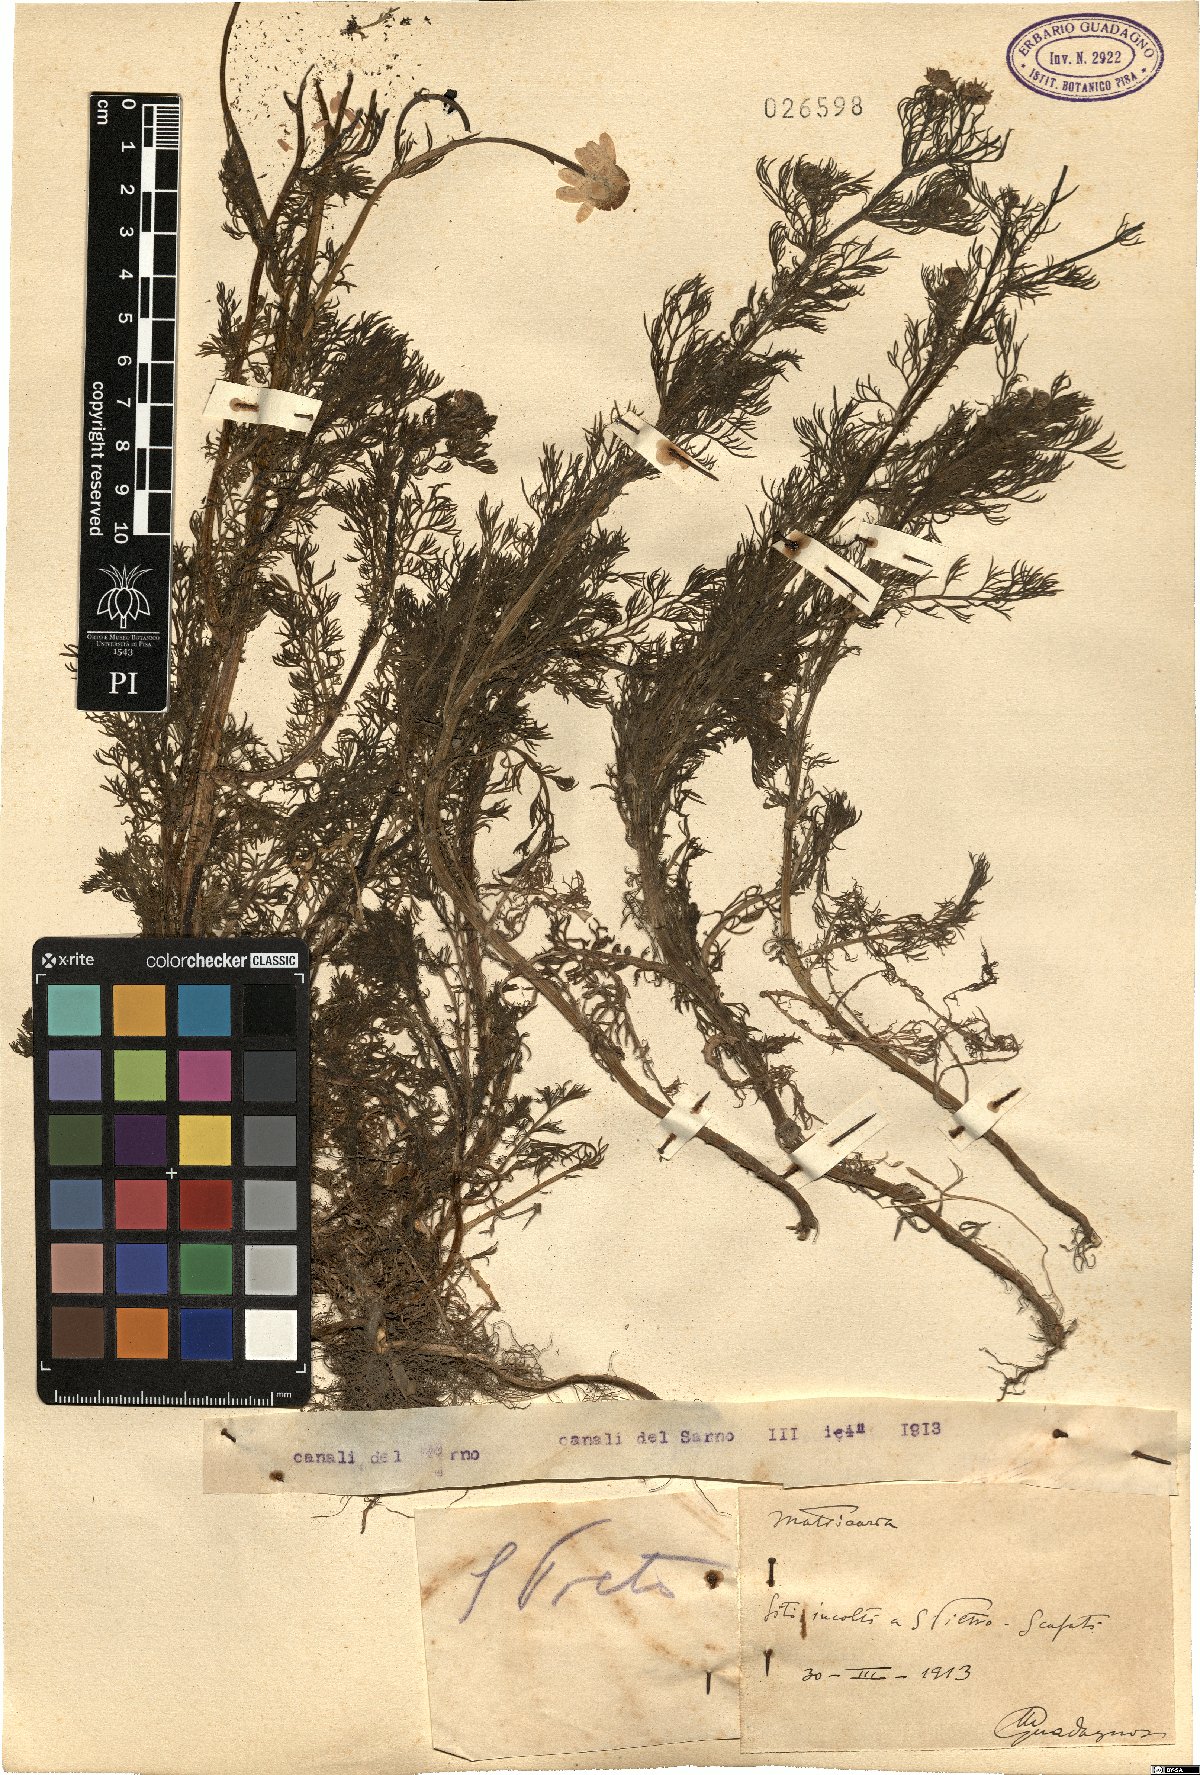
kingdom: Plantae
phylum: Tracheophyta
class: Magnoliopsida
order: Asterales
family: Asteraceae
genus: Matricaria
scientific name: Matricaria
